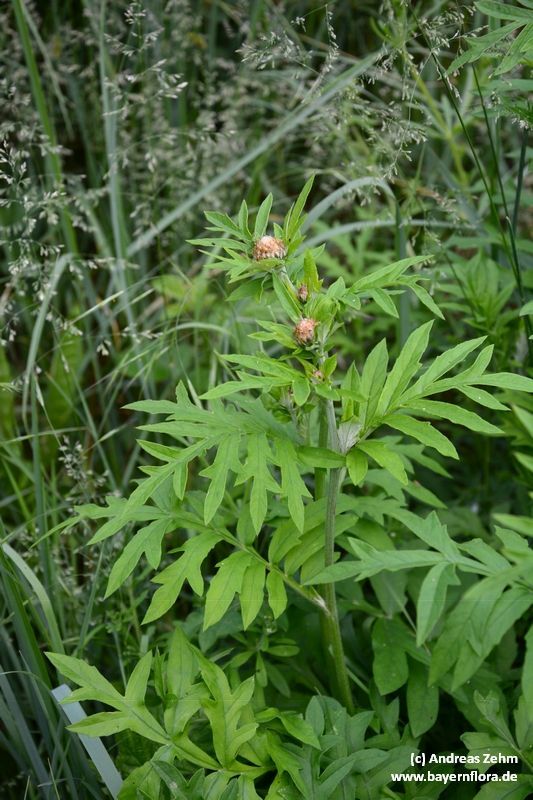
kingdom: Plantae
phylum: Tracheophyta
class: Magnoliopsida
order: Asterales
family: Asteraceae
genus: Centaurea
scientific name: Centaurea scabiosa
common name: Greater knapweed
